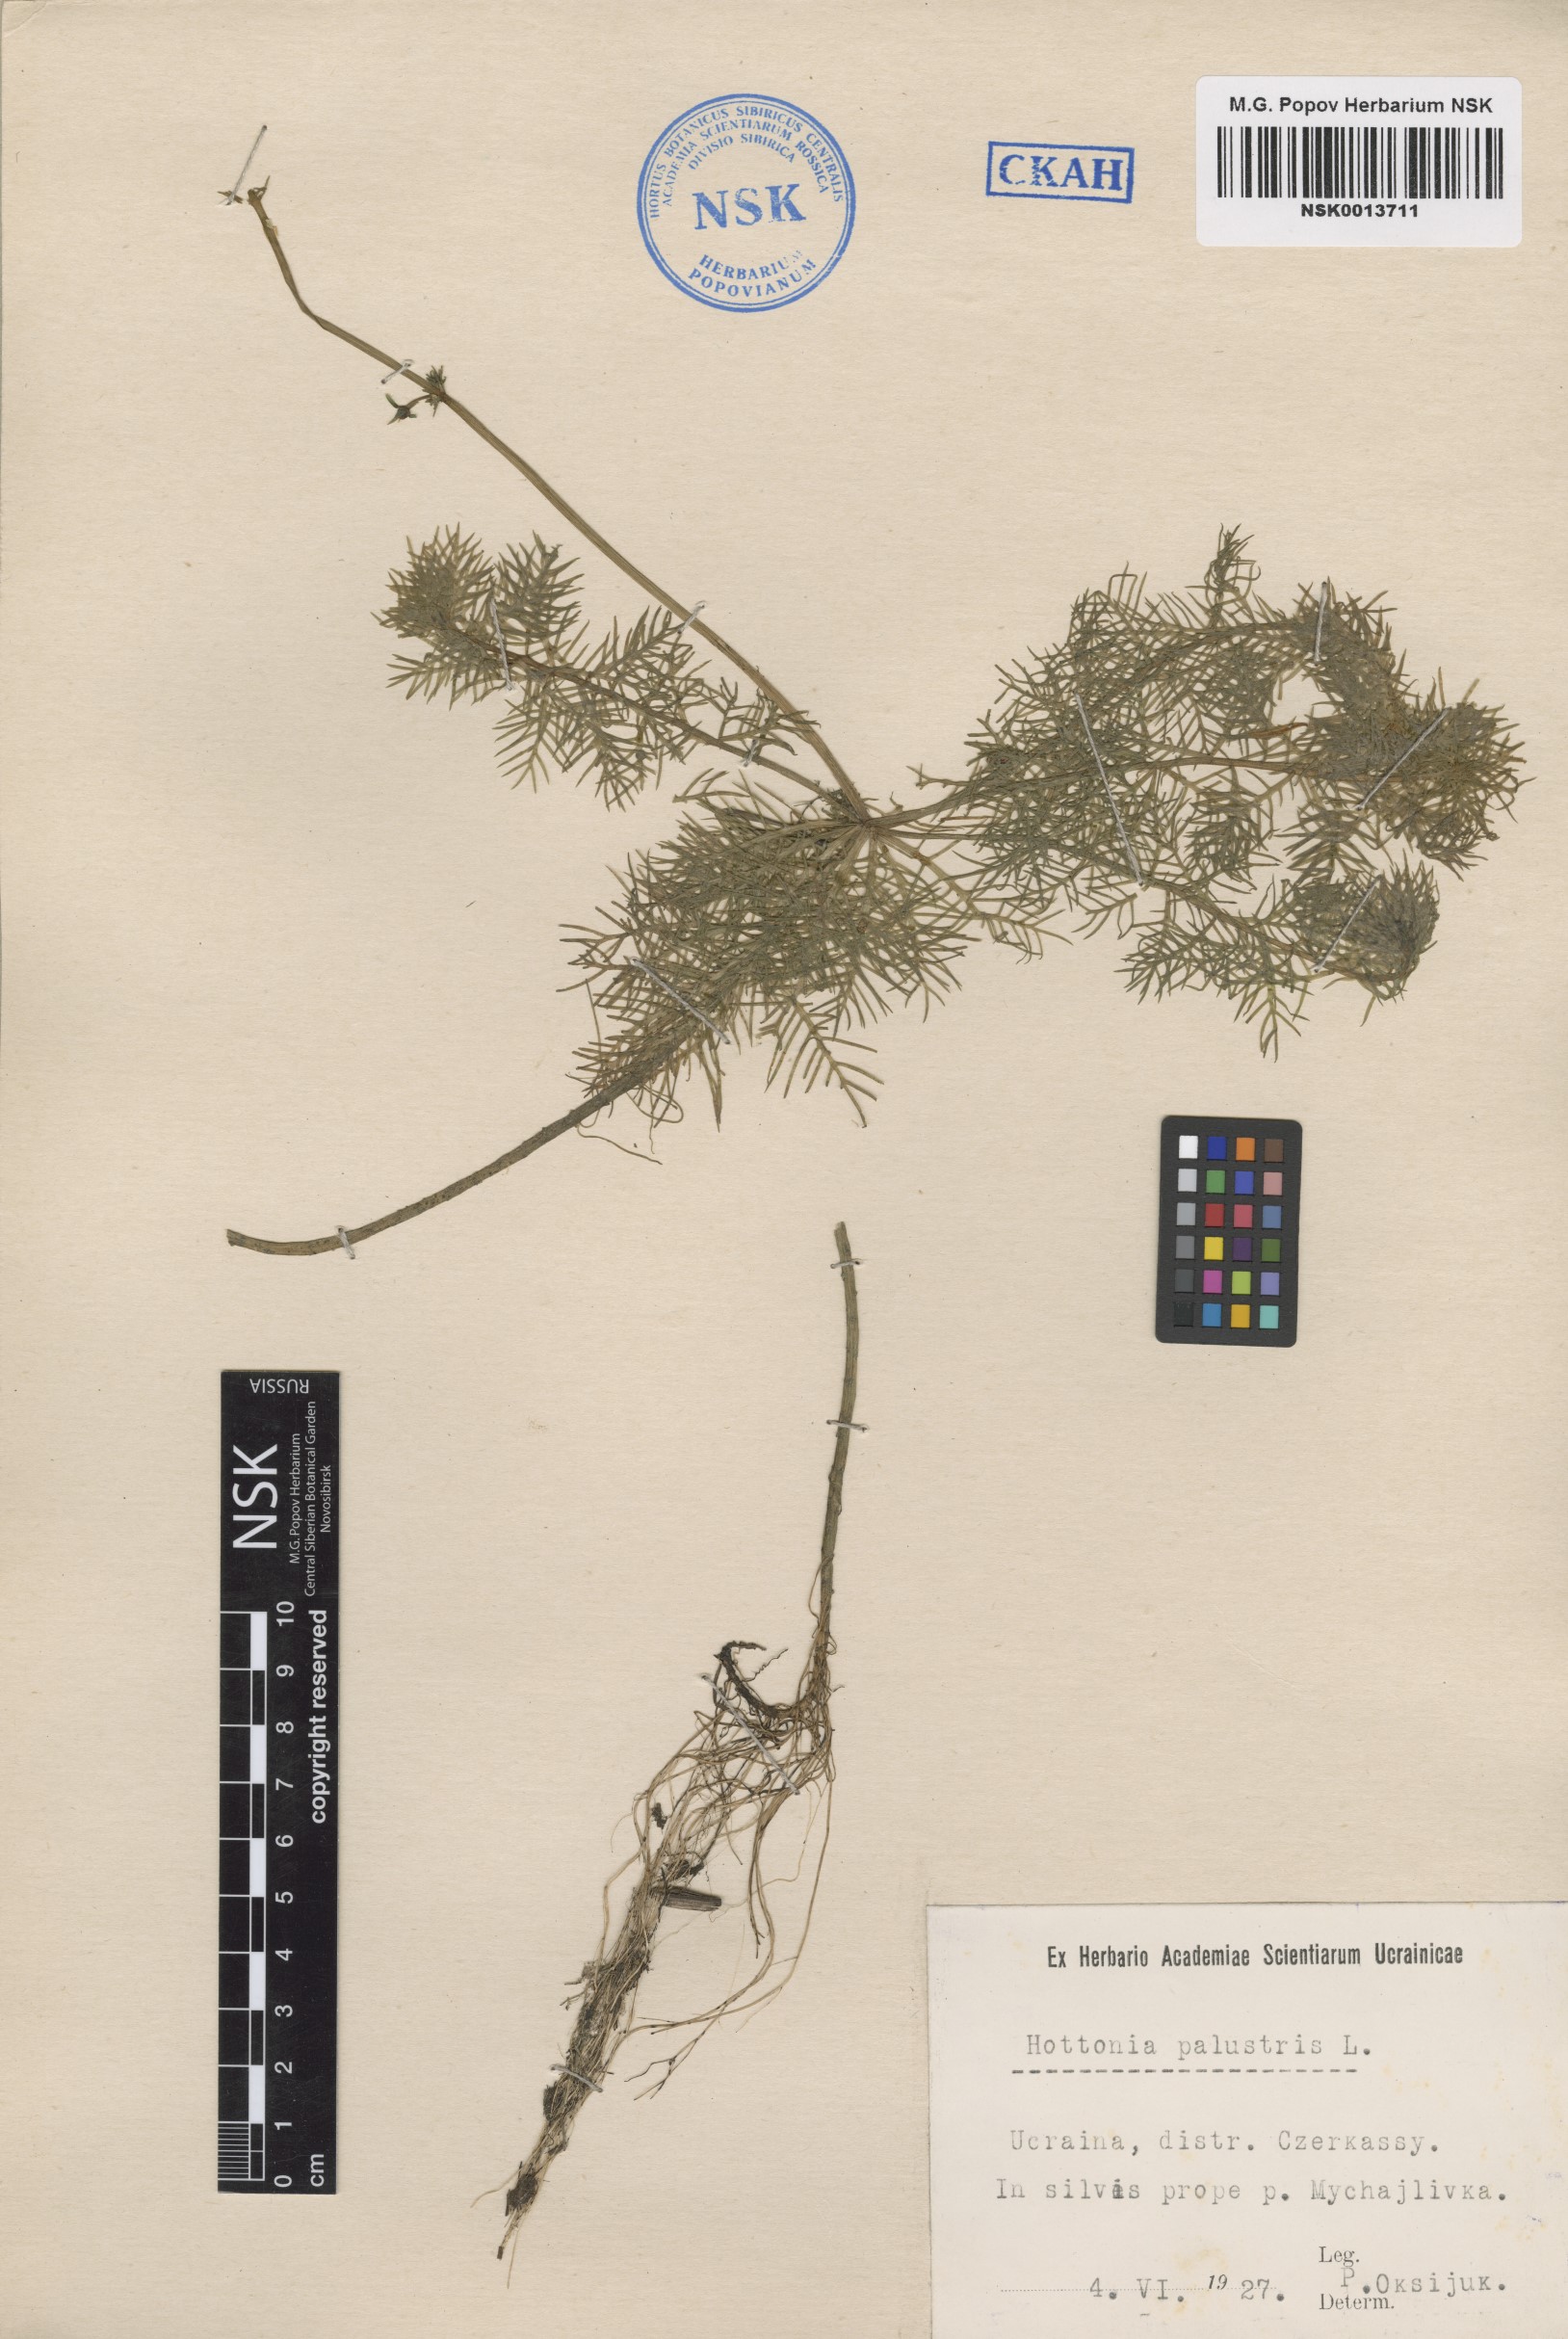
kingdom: Plantae
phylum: Tracheophyta
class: Magnoliopsida
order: Ericales
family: Primulaceae
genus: Hottonia
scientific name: Hottonia palustris
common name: Water-violet
